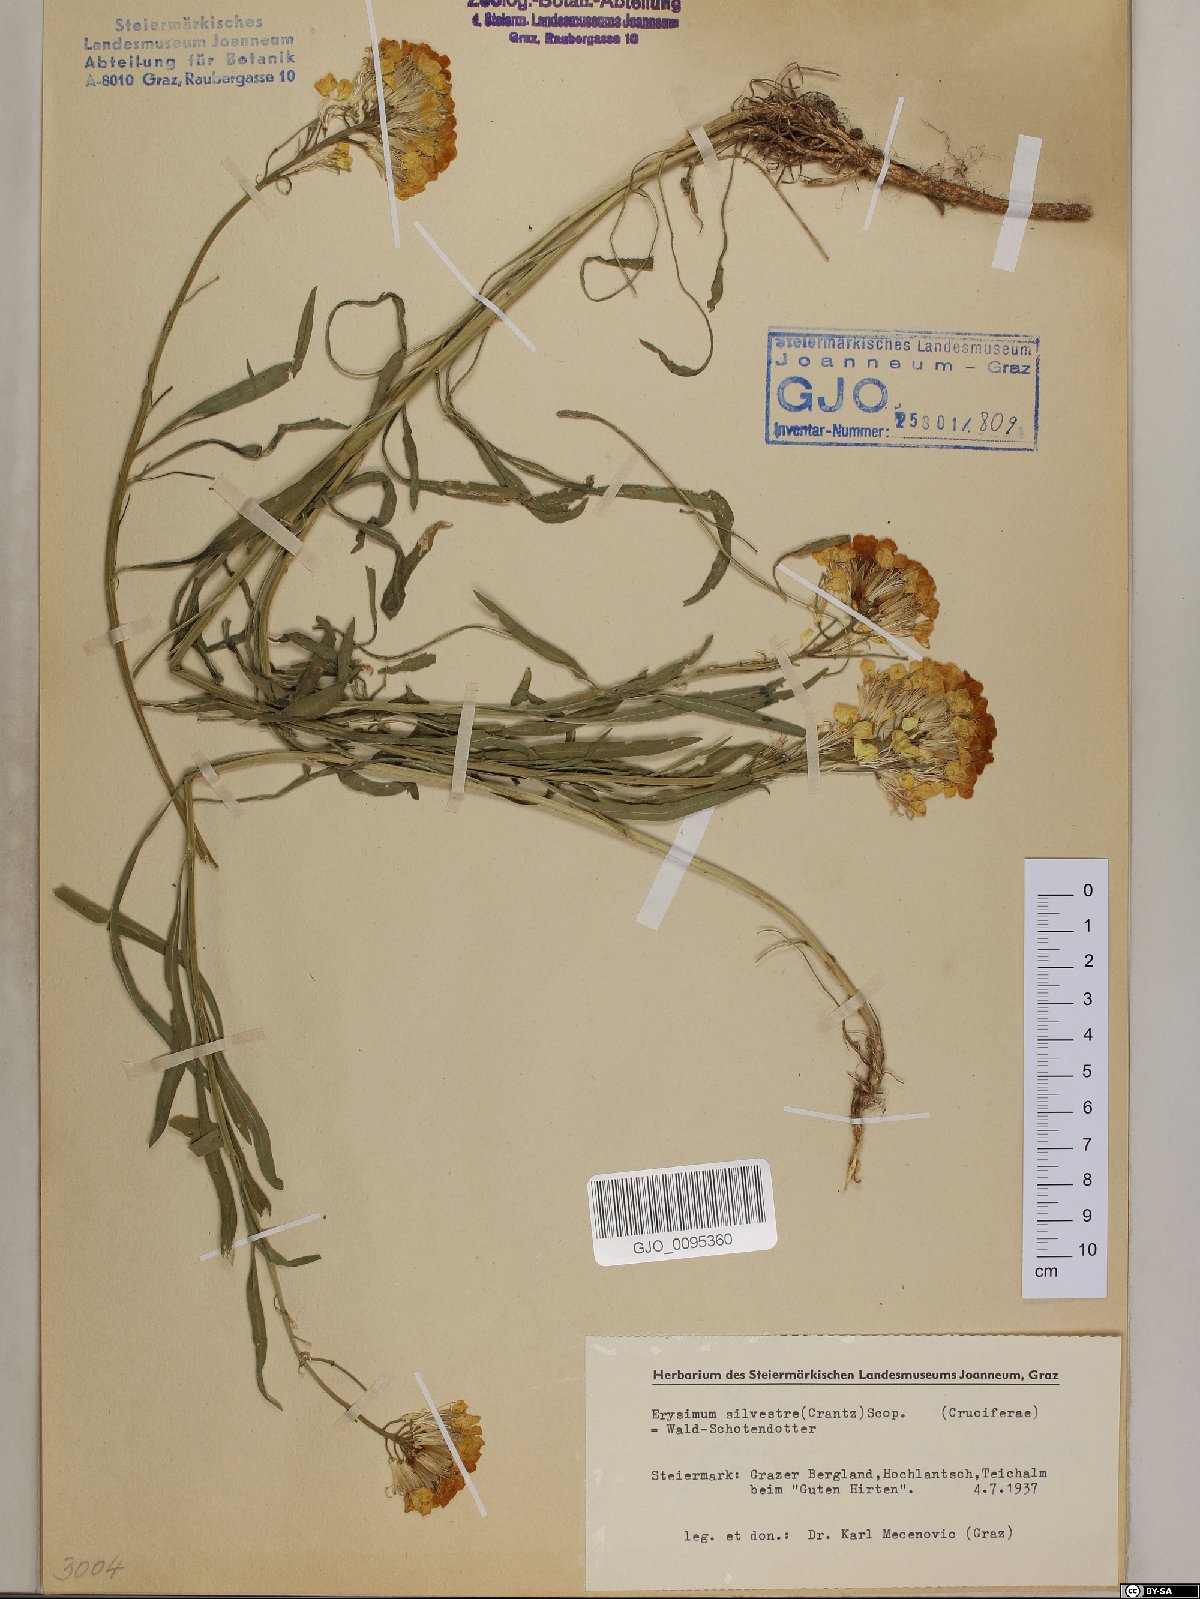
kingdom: Plantae
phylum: Tracheophyta
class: Magnoliopsida
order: Brassicales
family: Brassicaceae
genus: Erysimum
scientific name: Erysimum sylvestre
